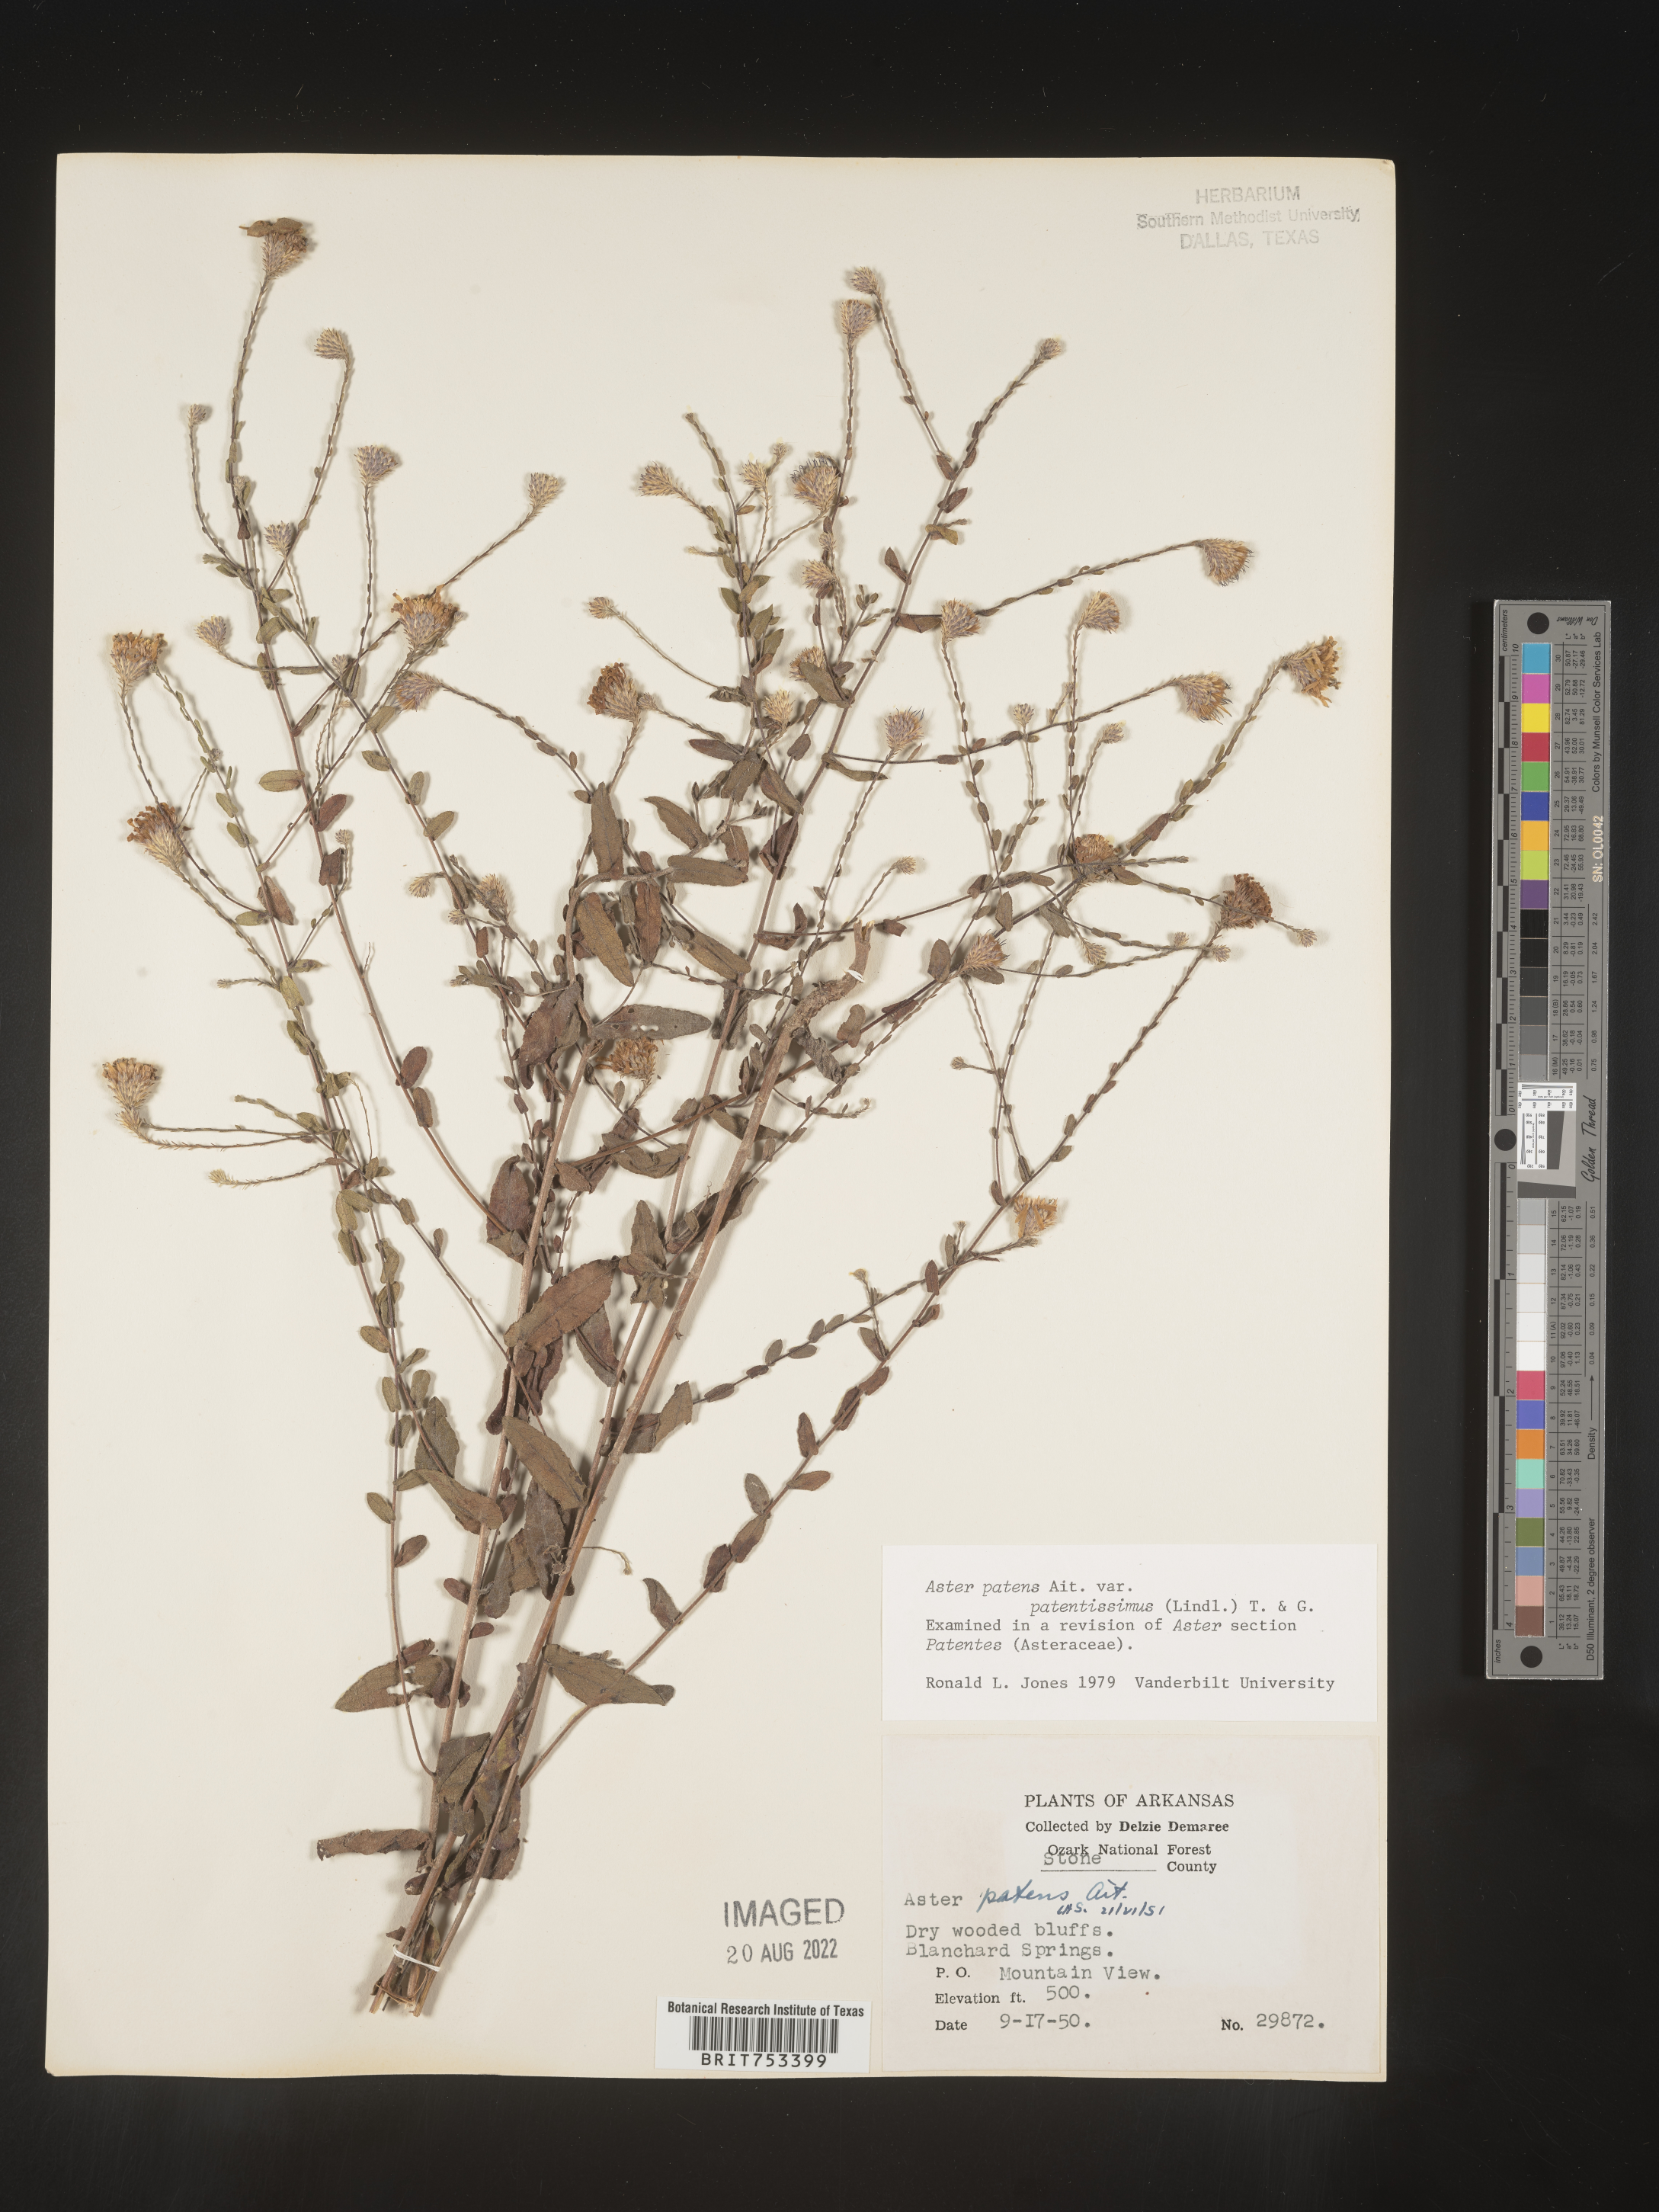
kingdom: Plantae
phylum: Tracheophyta
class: Magnoliopsida
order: Asterales
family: Asteraceae
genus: Symphyotrichum
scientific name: Symphyotrichum patens
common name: Late purple aster
